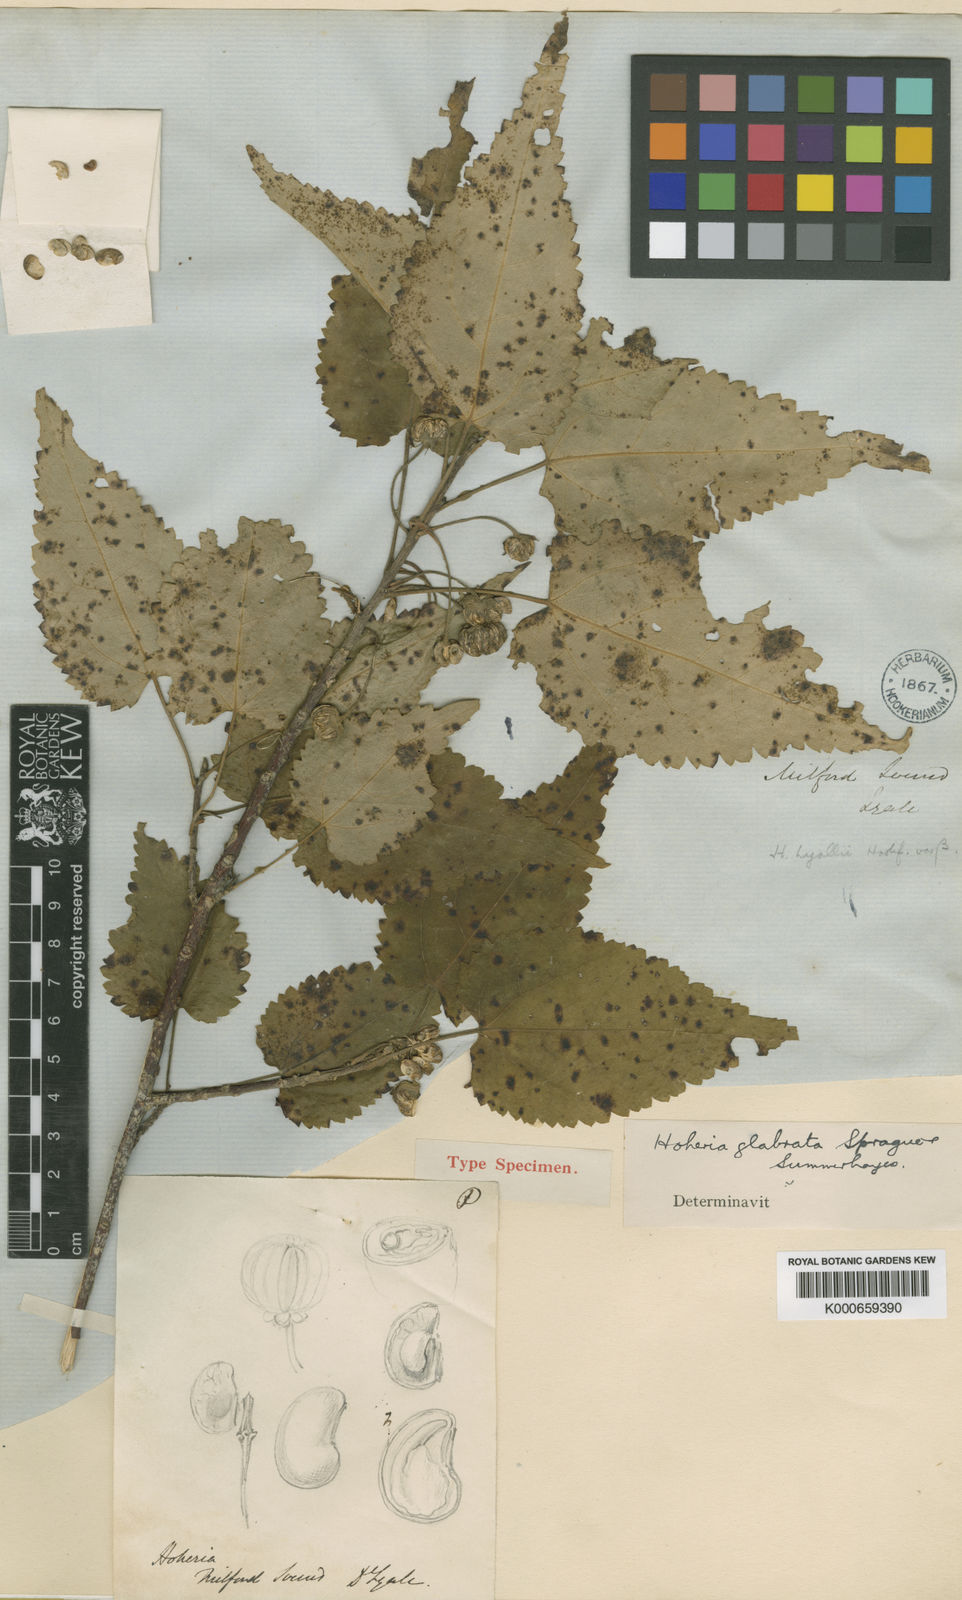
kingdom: Plantae
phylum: Tracheophyta
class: Magnoliopsida
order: Malvales
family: Malvaceae
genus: Hoheria
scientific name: Hoheria glabrata
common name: Mountain-ribbon
